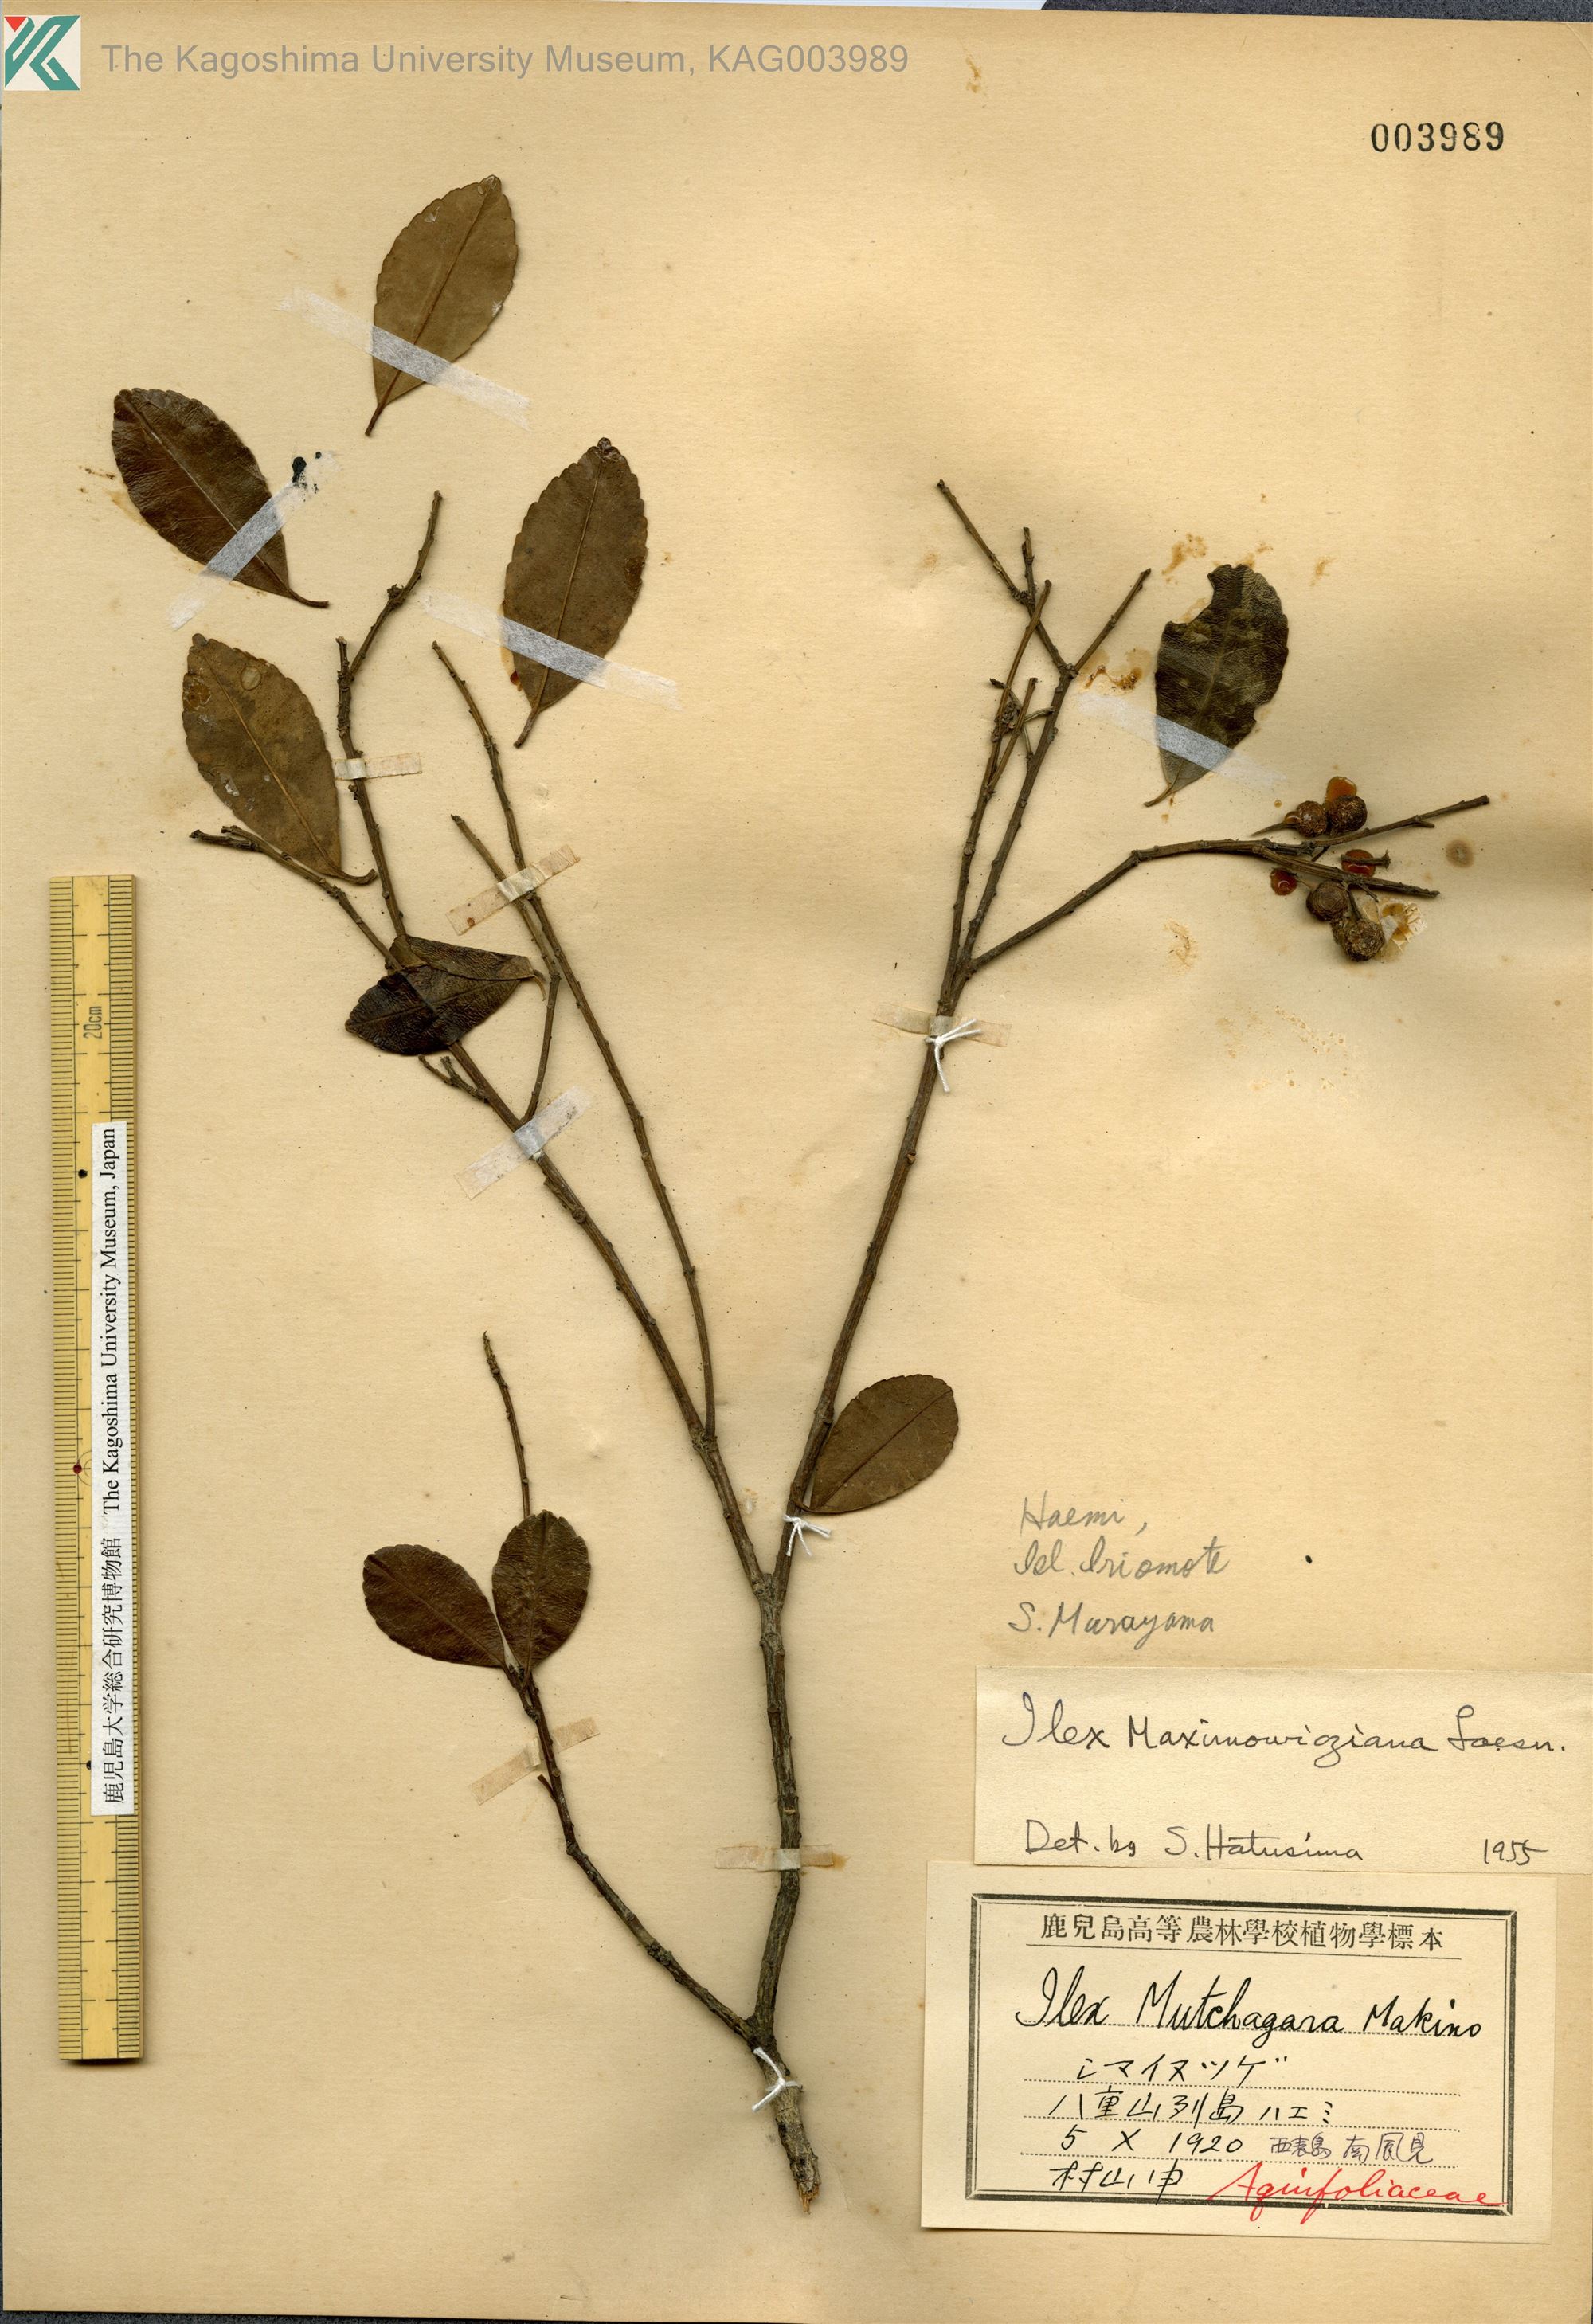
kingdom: Plantae
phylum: Tracheophyta
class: Magnoliopsida
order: Aquifoliales
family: Aquifoliaceae
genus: Ilex
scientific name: Ilex maximowicziana
